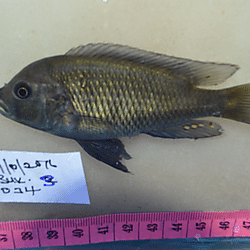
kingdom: Animalia
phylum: Chordata
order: Perciformes
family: Cichlidae
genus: Mbipia
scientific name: Mbipia
